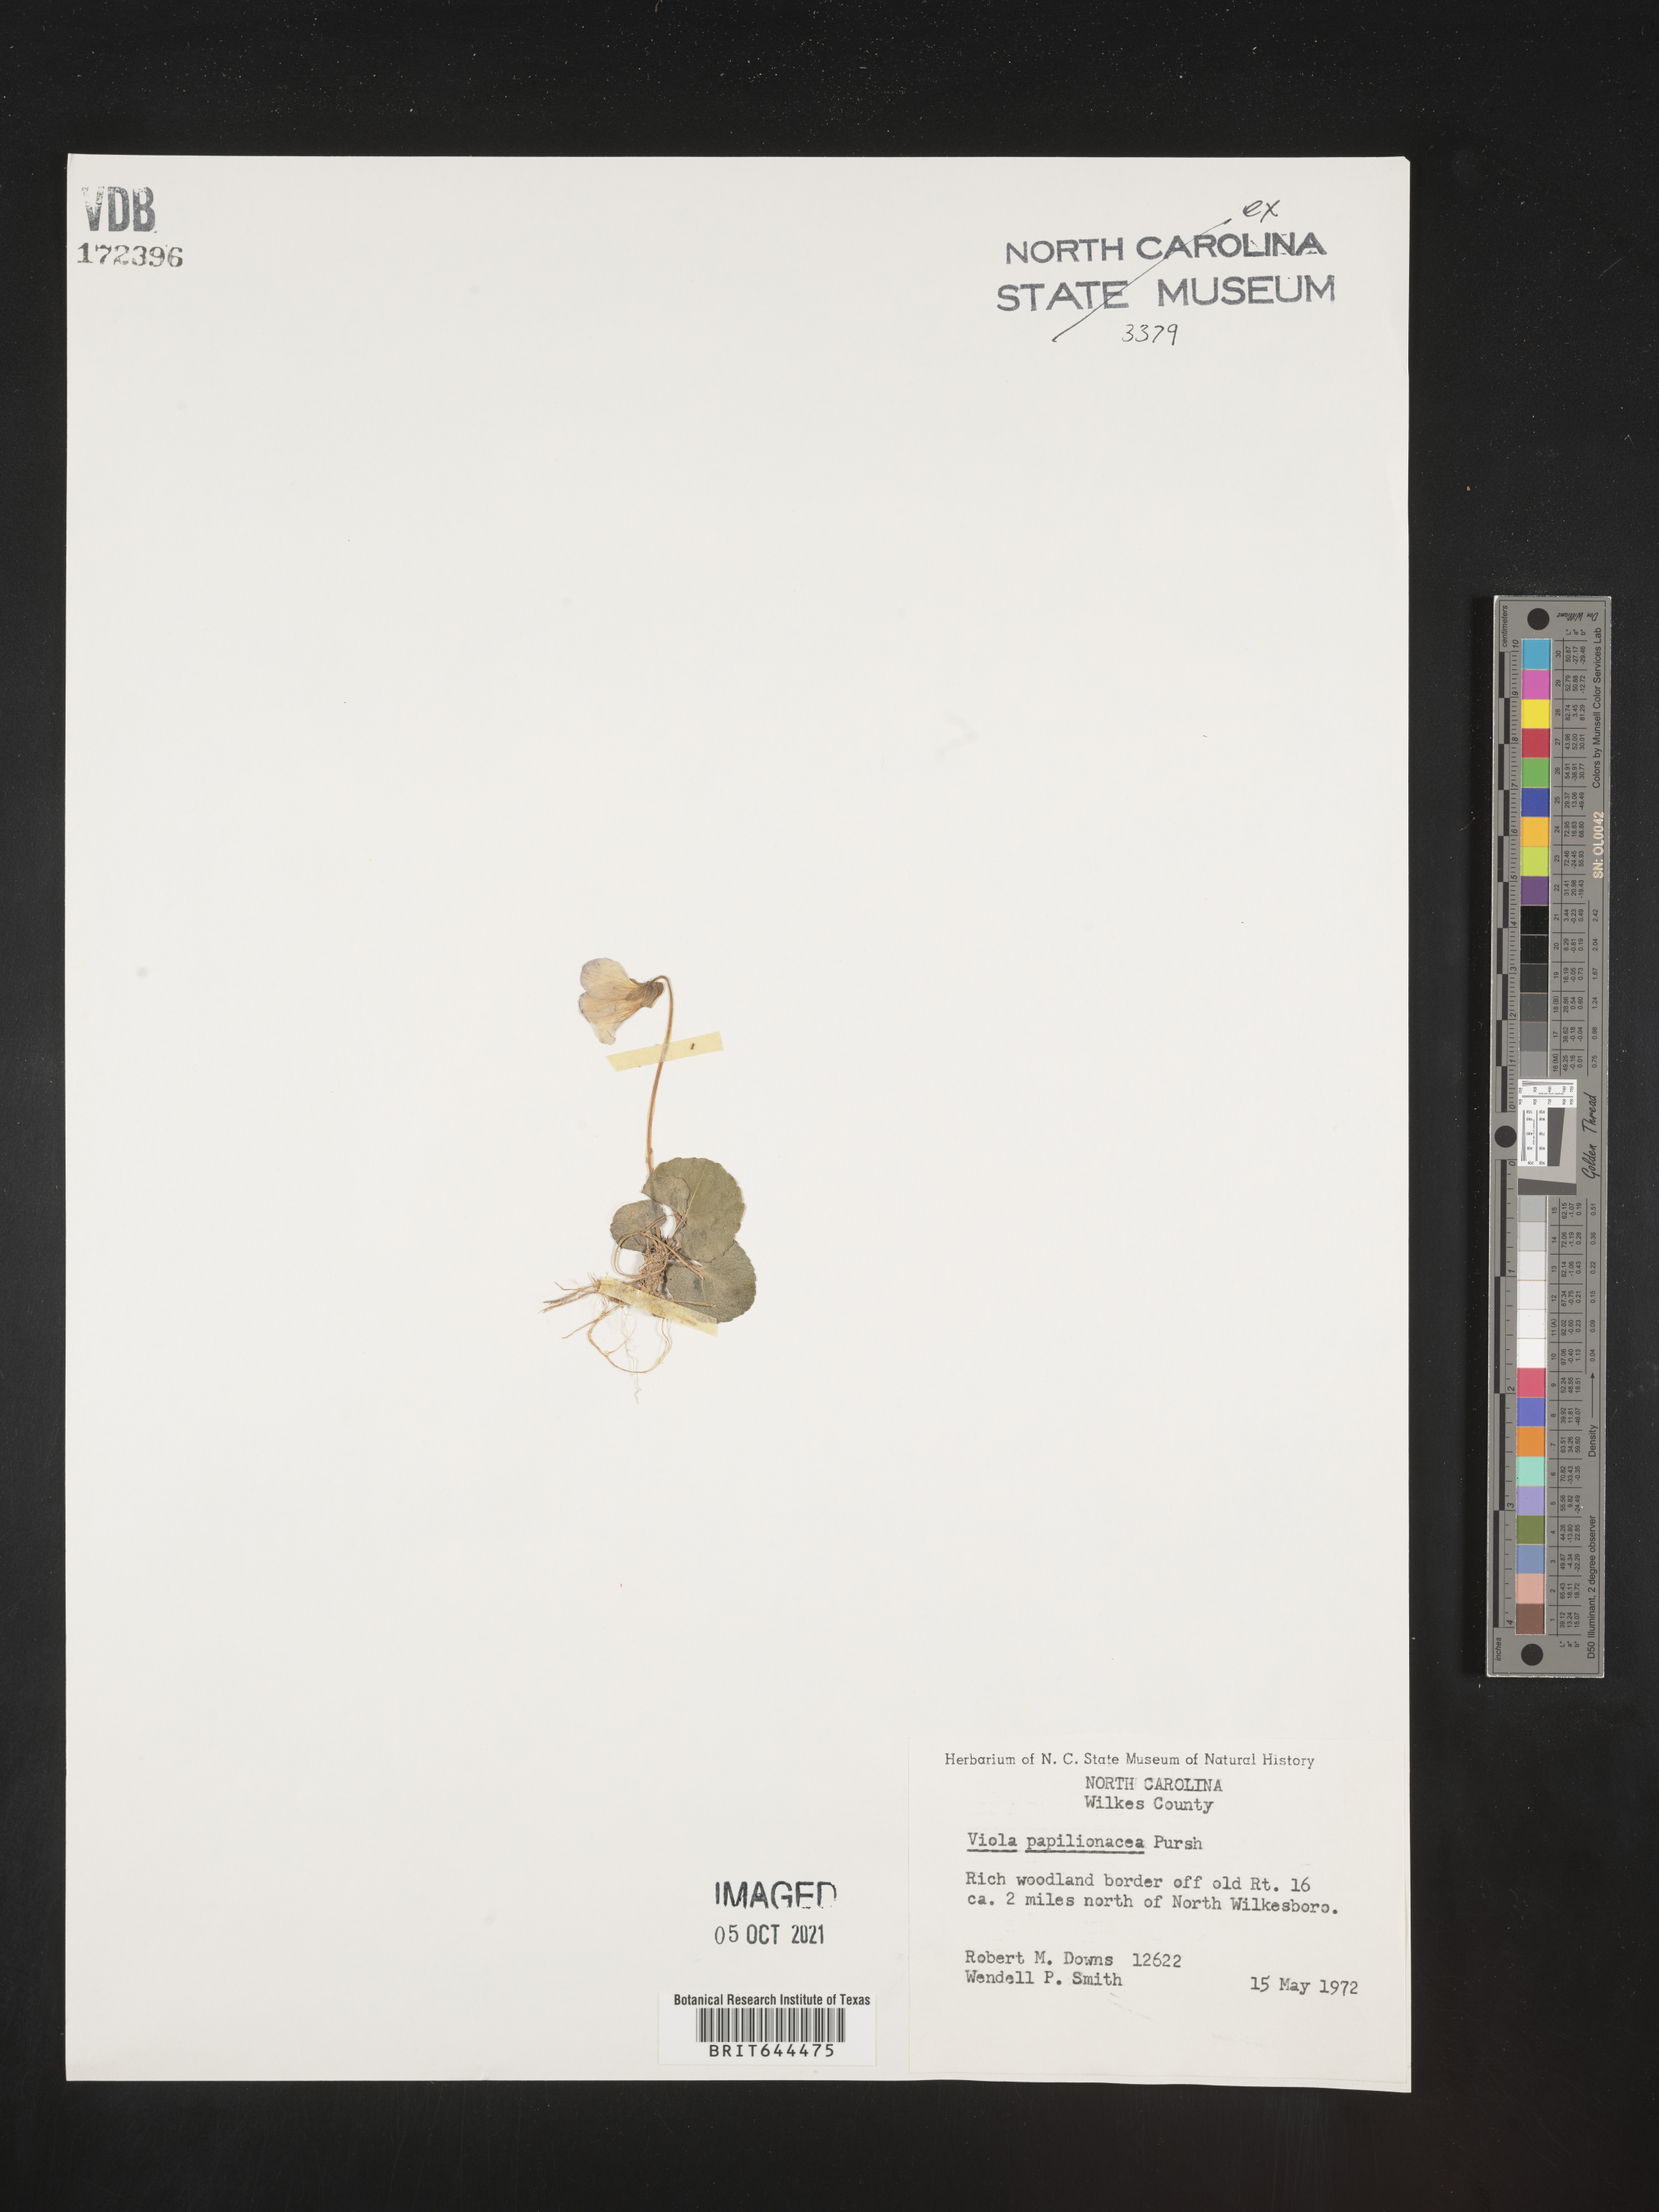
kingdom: Plantae
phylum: Tracheophyta
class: Magnoliopsida
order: Malpighiales
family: Violaceae
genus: Viola
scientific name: Viola
